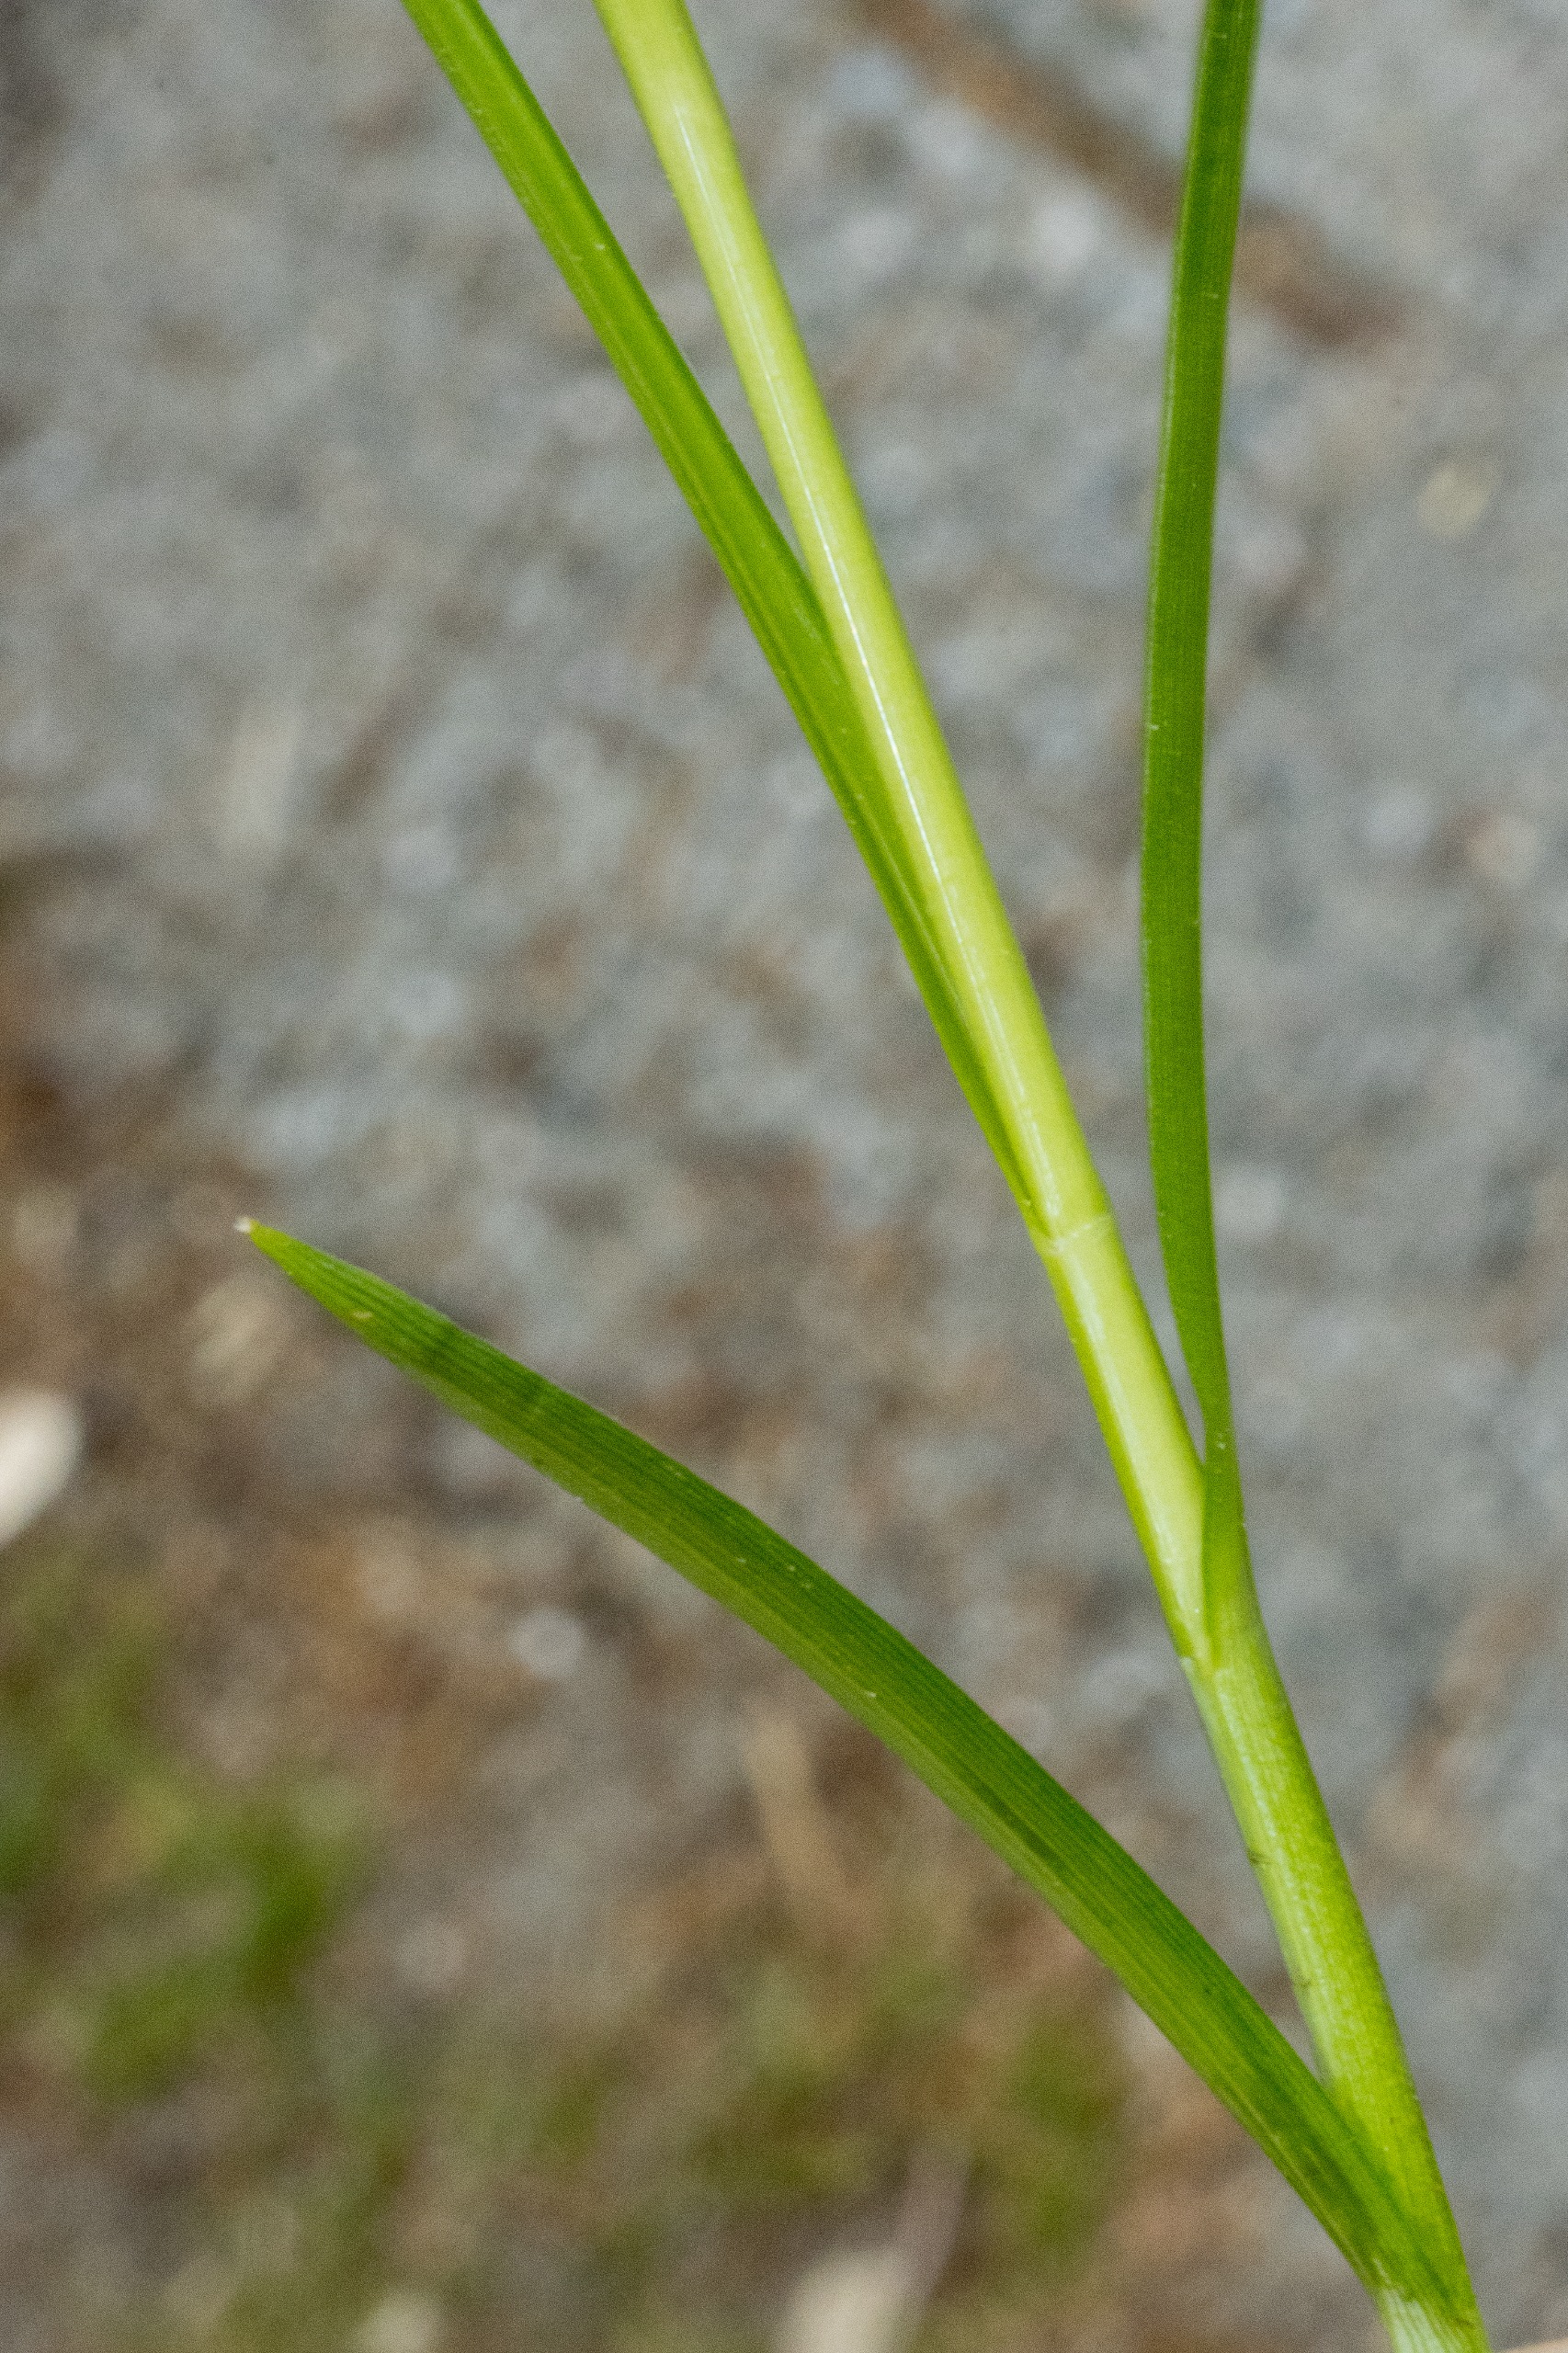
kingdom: Plantae
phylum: Tracheophyta
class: Liliopsida
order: Poales
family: Cyperaceae
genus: Carex
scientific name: Carex divulsa
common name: Mellembrudt star
